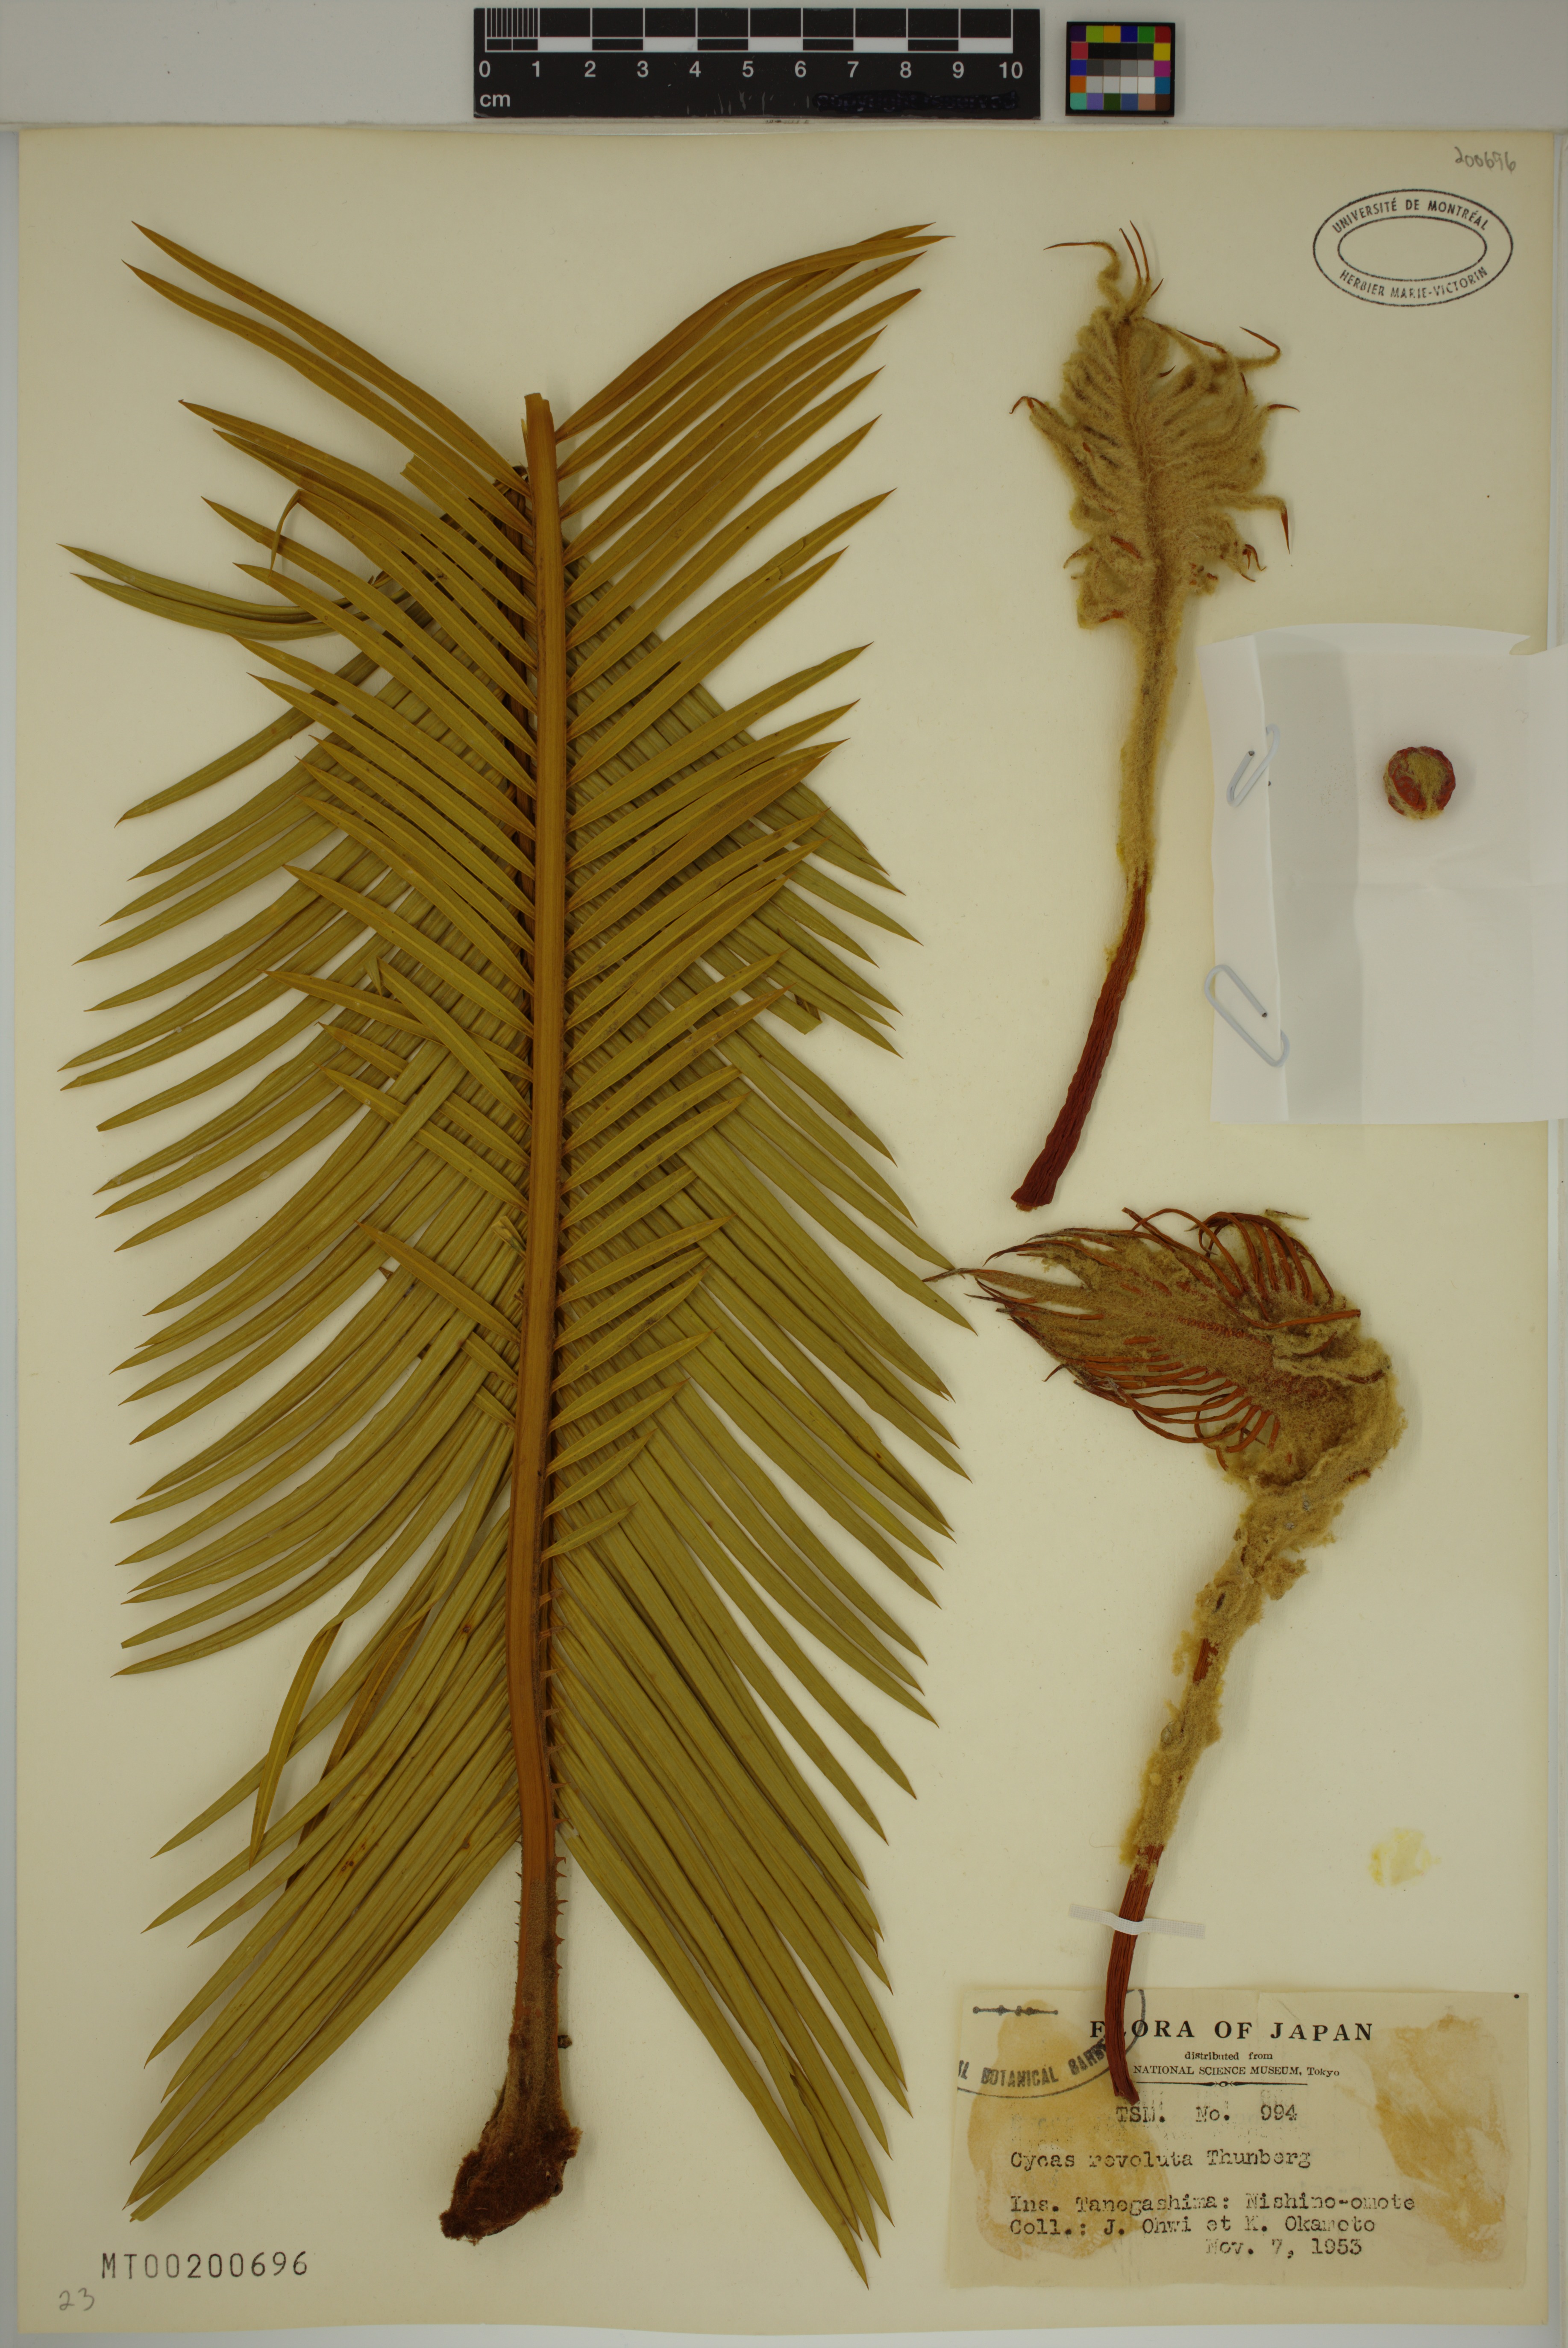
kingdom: Plantae
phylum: Tracheophyta
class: Cycadopsida
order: Cycadales
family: Cycadaceae
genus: Cycas
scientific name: Cycas revoluta
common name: Sago palm
